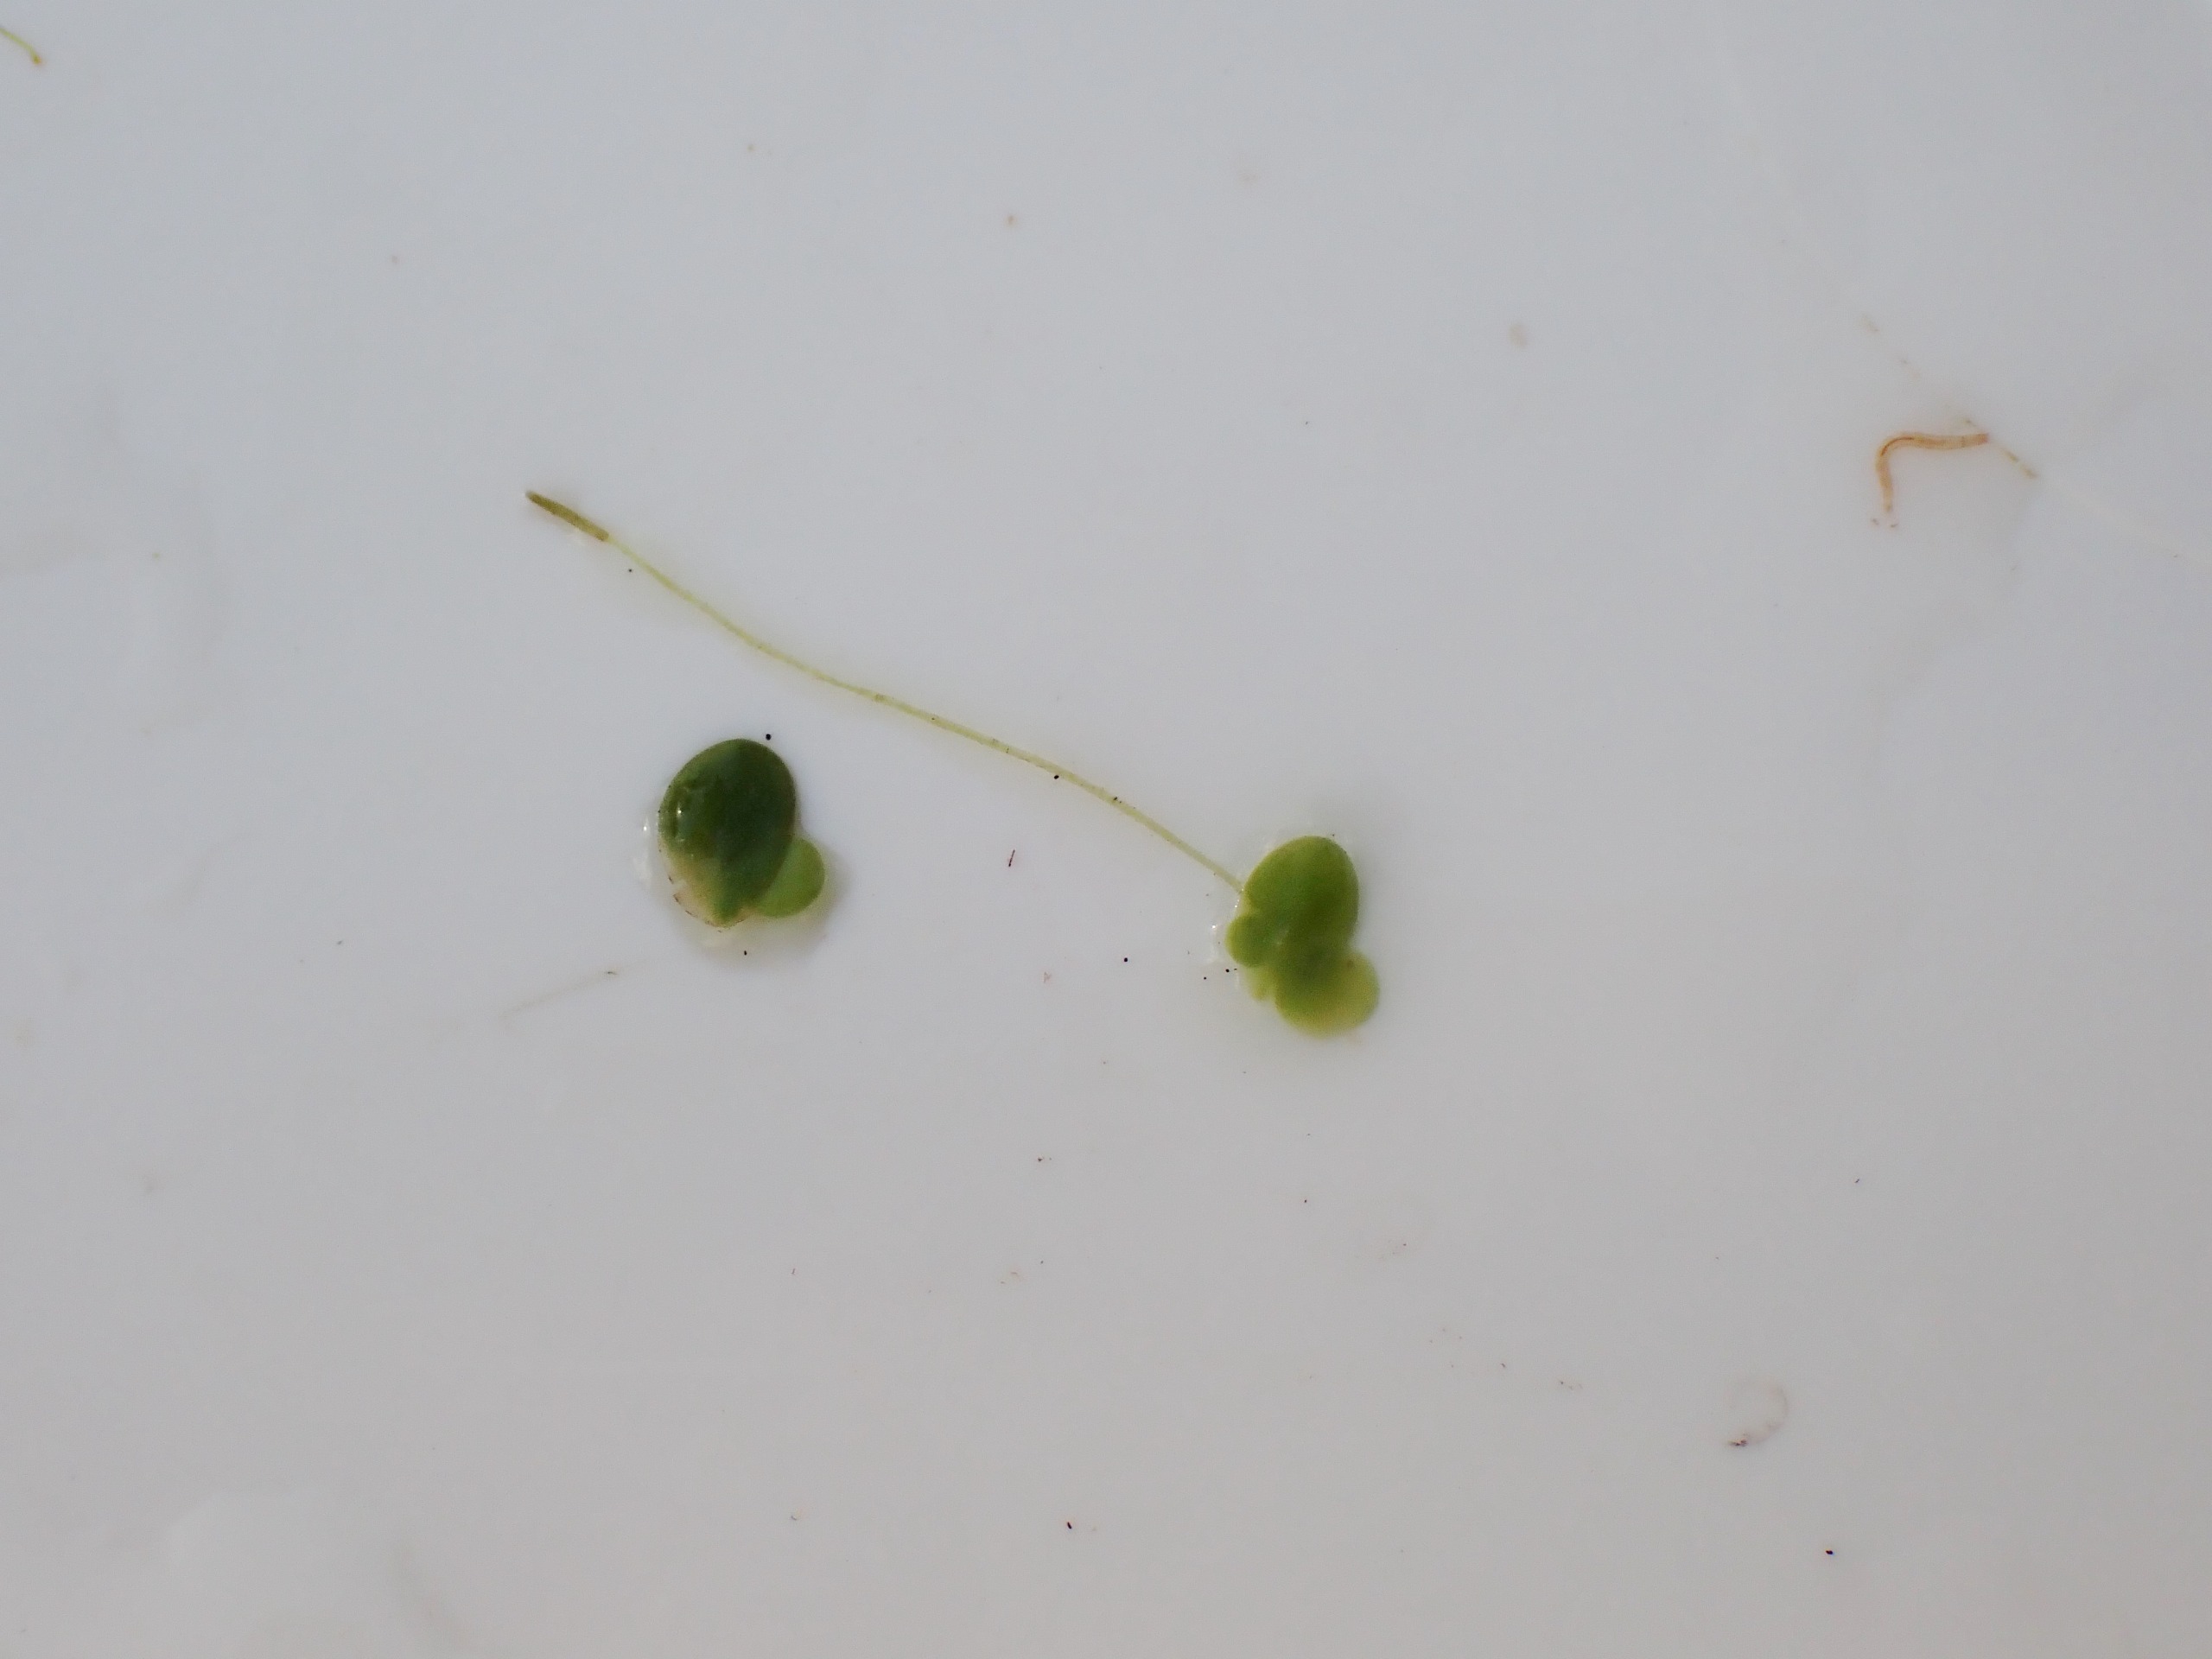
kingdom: Plantae
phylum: Tracheophyta
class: Liliopsida
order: Alismatales
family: Araceae
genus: Lemna
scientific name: Lemna minor
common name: Liden andemad
